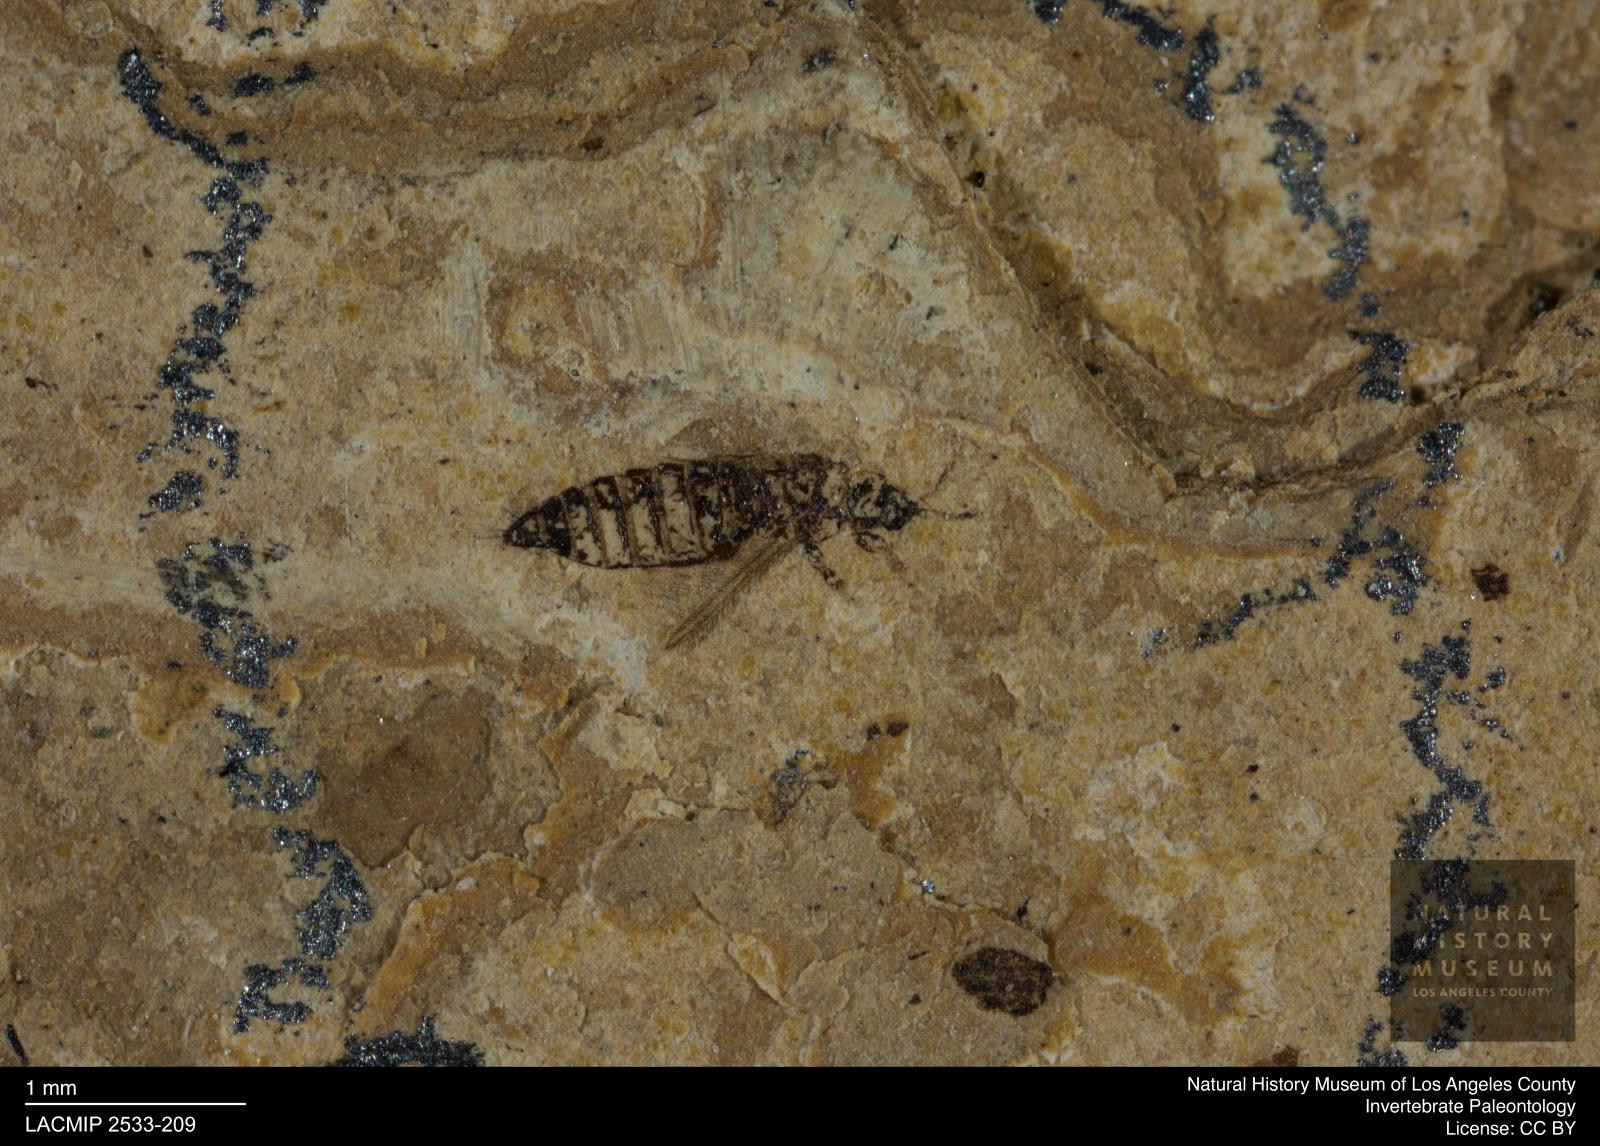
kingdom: Animalia
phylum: Arthropoda
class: Insecta
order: Thysanoptera
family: Thripidae
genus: Thrips
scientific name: Thrips
